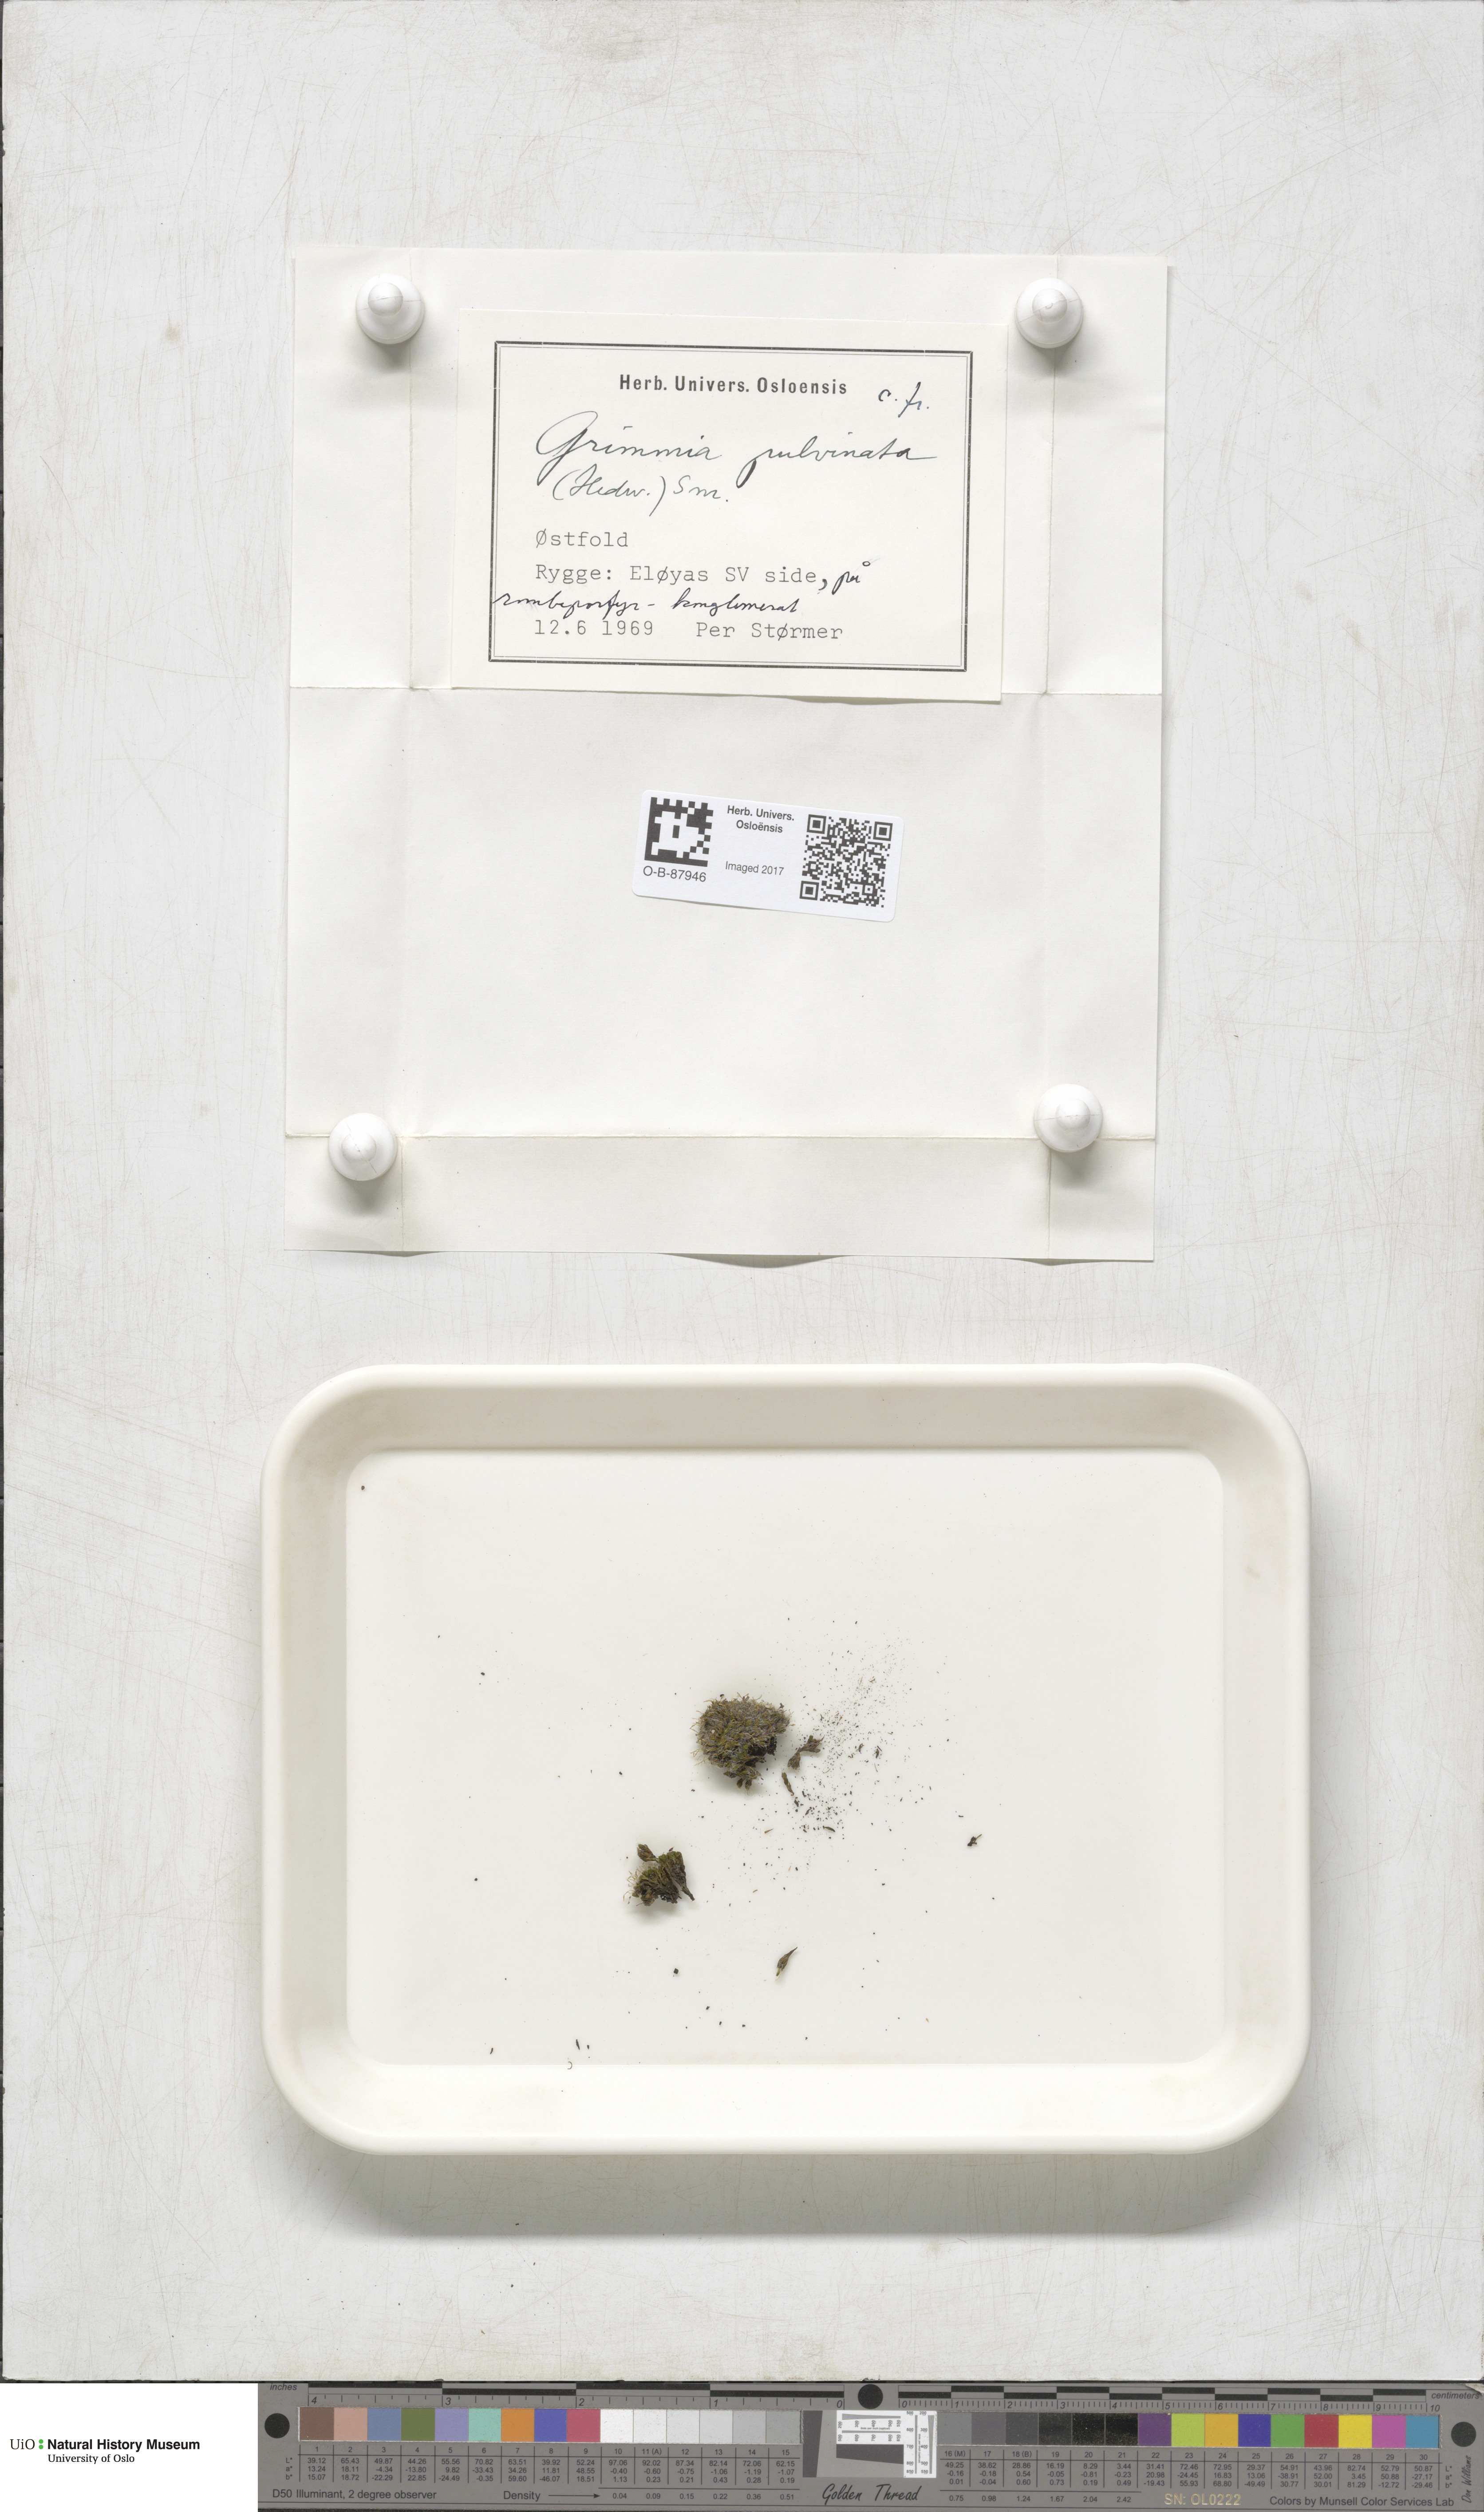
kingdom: Plantae
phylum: Bryophyta
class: Bryopsida
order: Grimmiales
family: Grimmiaceae
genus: Grimmia
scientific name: Grimmia pulvinata
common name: Grey-cushioned grimmia
